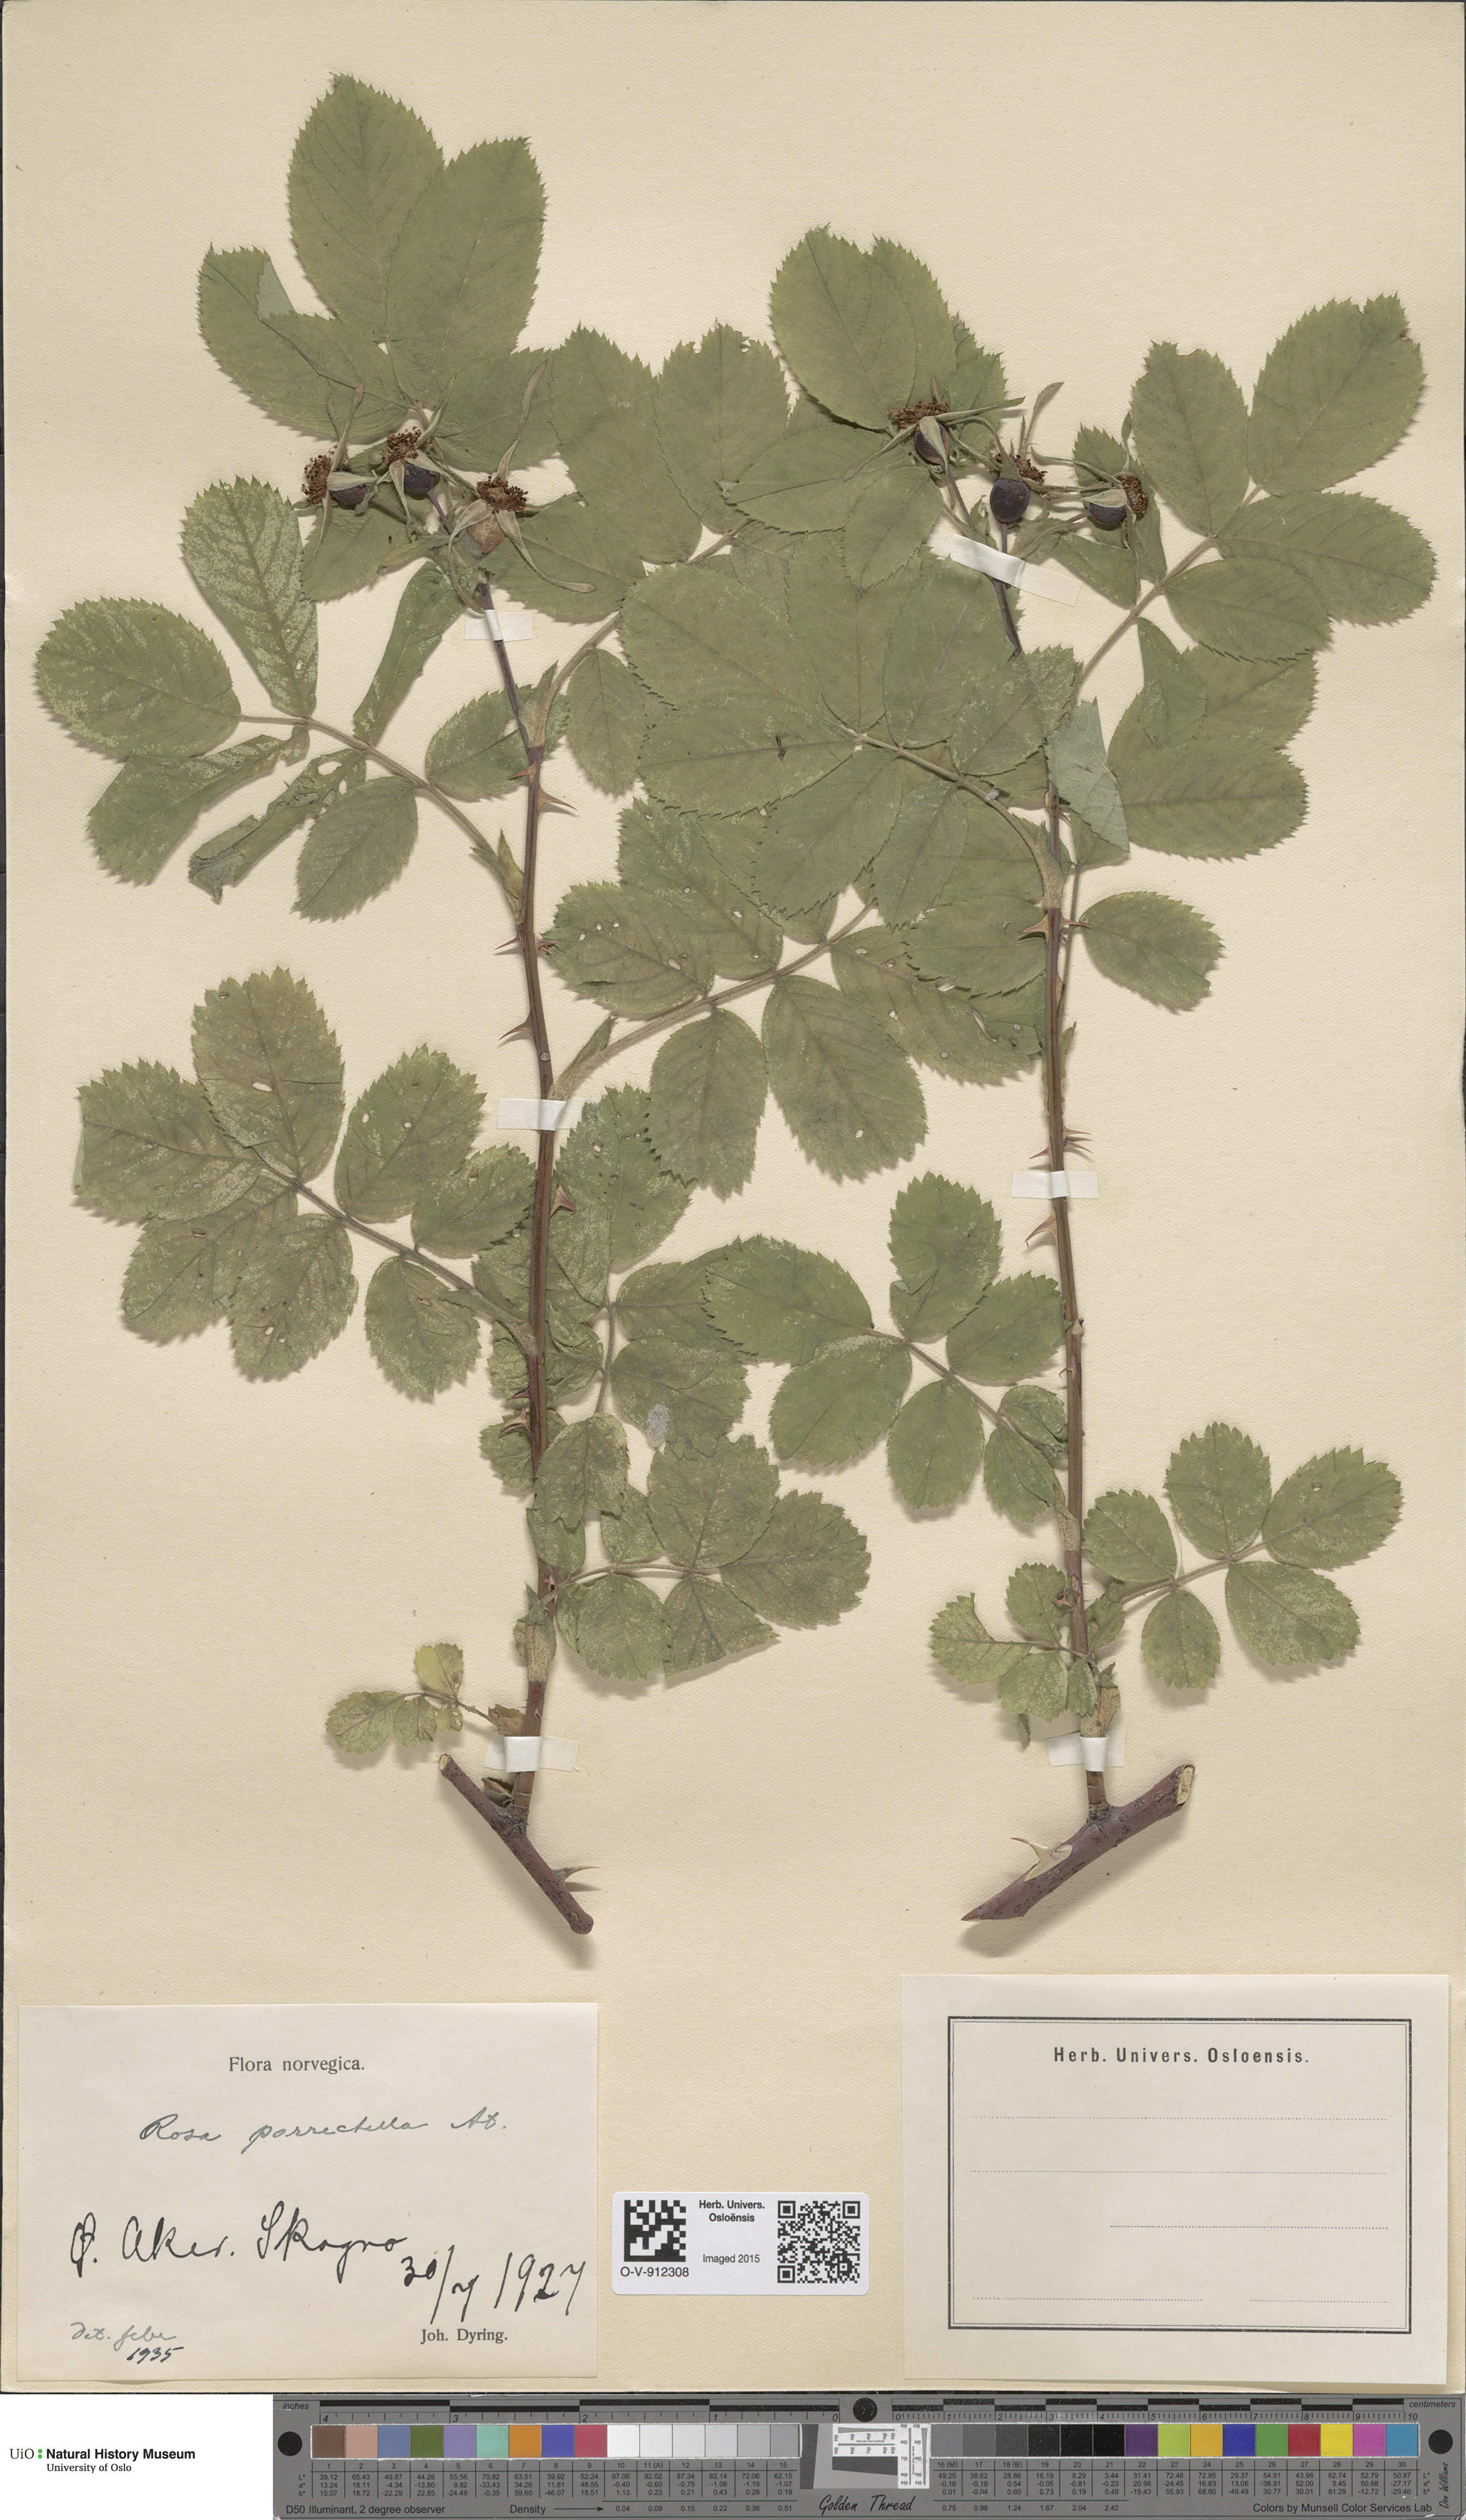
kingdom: Plantae
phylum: Tracheophyta
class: Magnoliopsida
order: Rosales
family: Rosaceae
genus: Rosa
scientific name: Rosa mollis
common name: Rose
